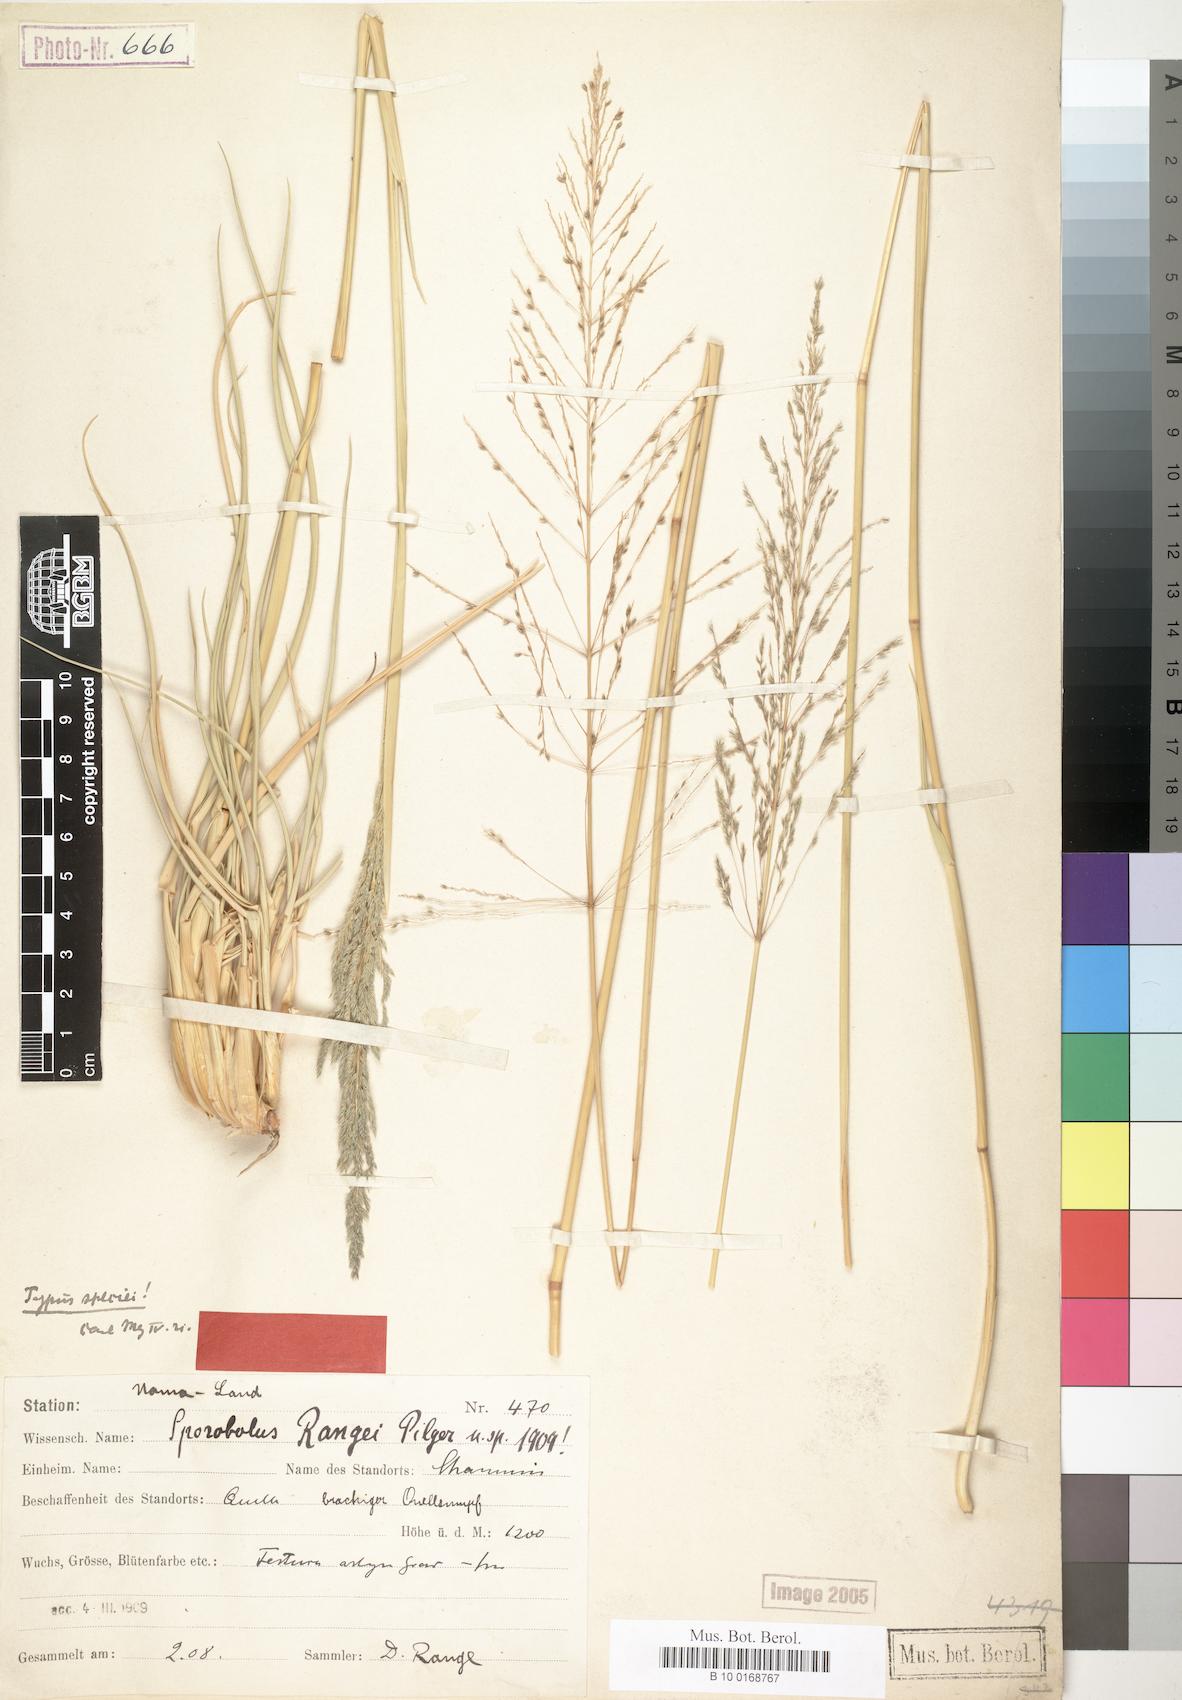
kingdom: Plantae
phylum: Tracheophyta
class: Liliopsida
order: Poales
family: Poaceae
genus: Sporobolus
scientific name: Sporobolus ioclados
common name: Pan dropseed
